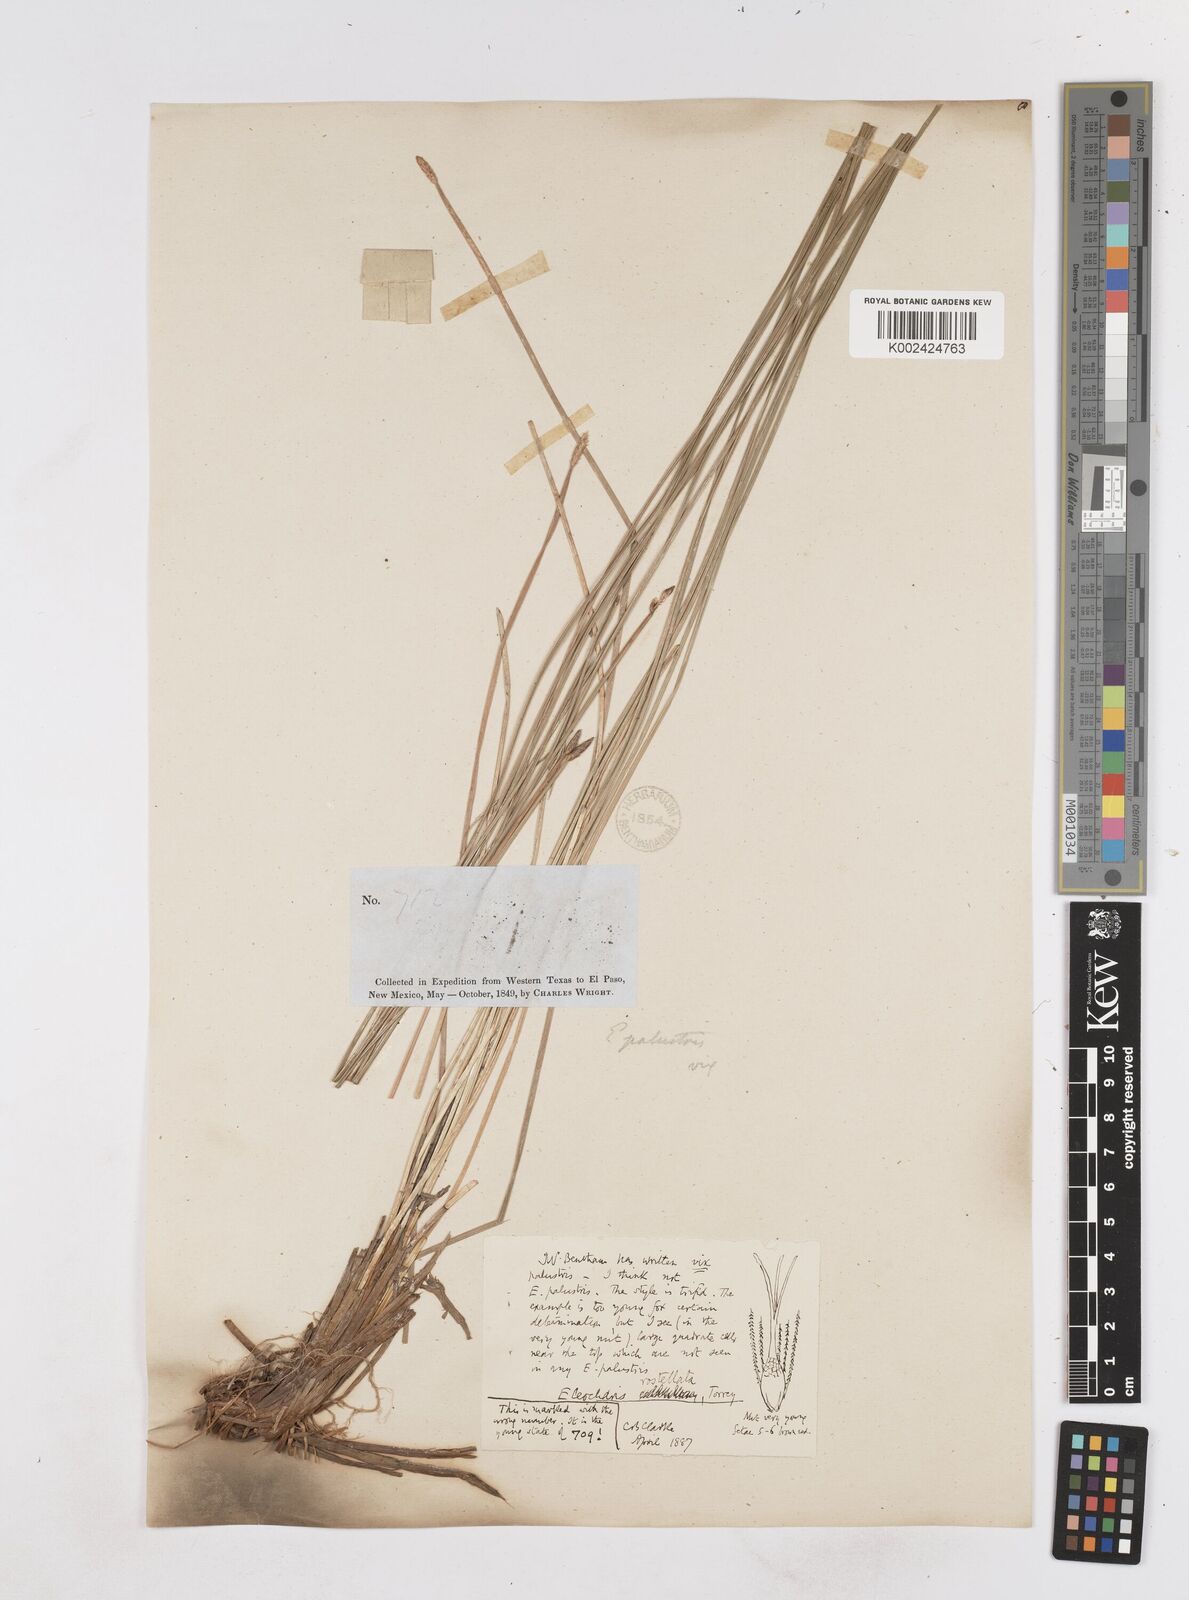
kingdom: Plantae
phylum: Tracheophyta
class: Liliopsida
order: Poales
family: Cyperaceae
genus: Eleocharis
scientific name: Eleocharis rostellata
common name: Walking sedge
